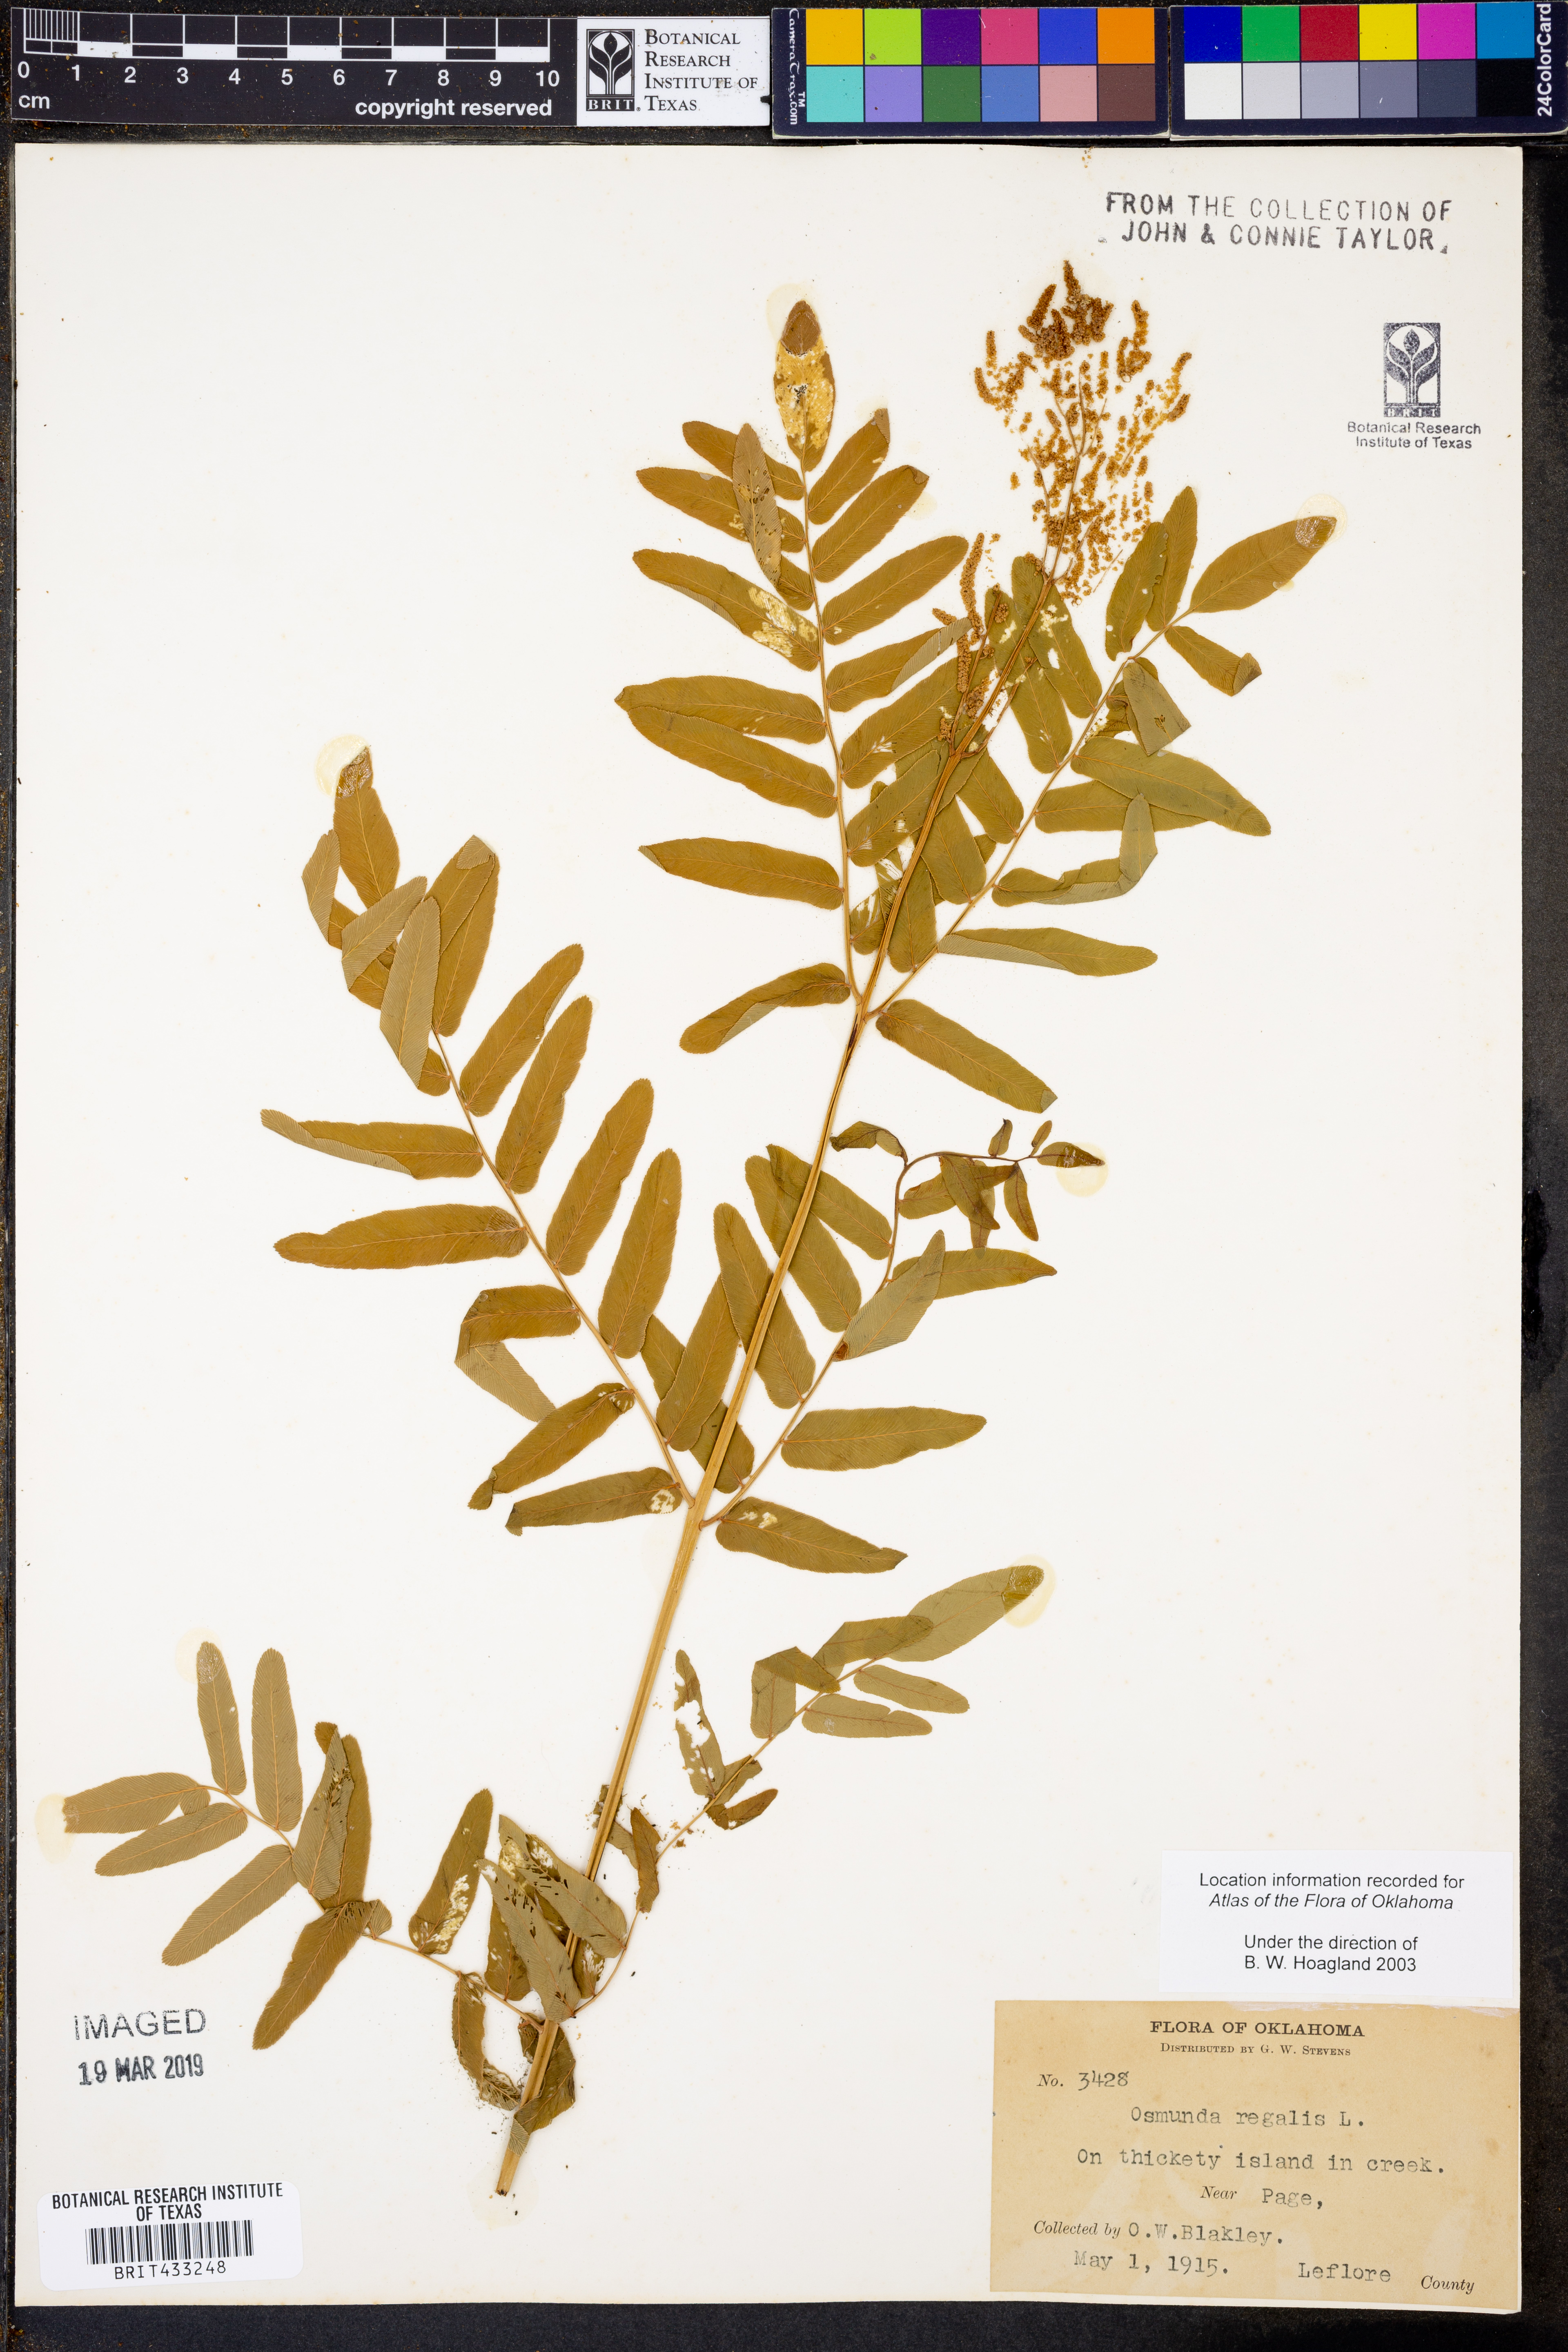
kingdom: Plantae
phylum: Tracheophyta
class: Polypodiopsida
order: Osmundales
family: Osmundaceae
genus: Osmunda
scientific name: Osmunda regalis
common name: Royal fern
